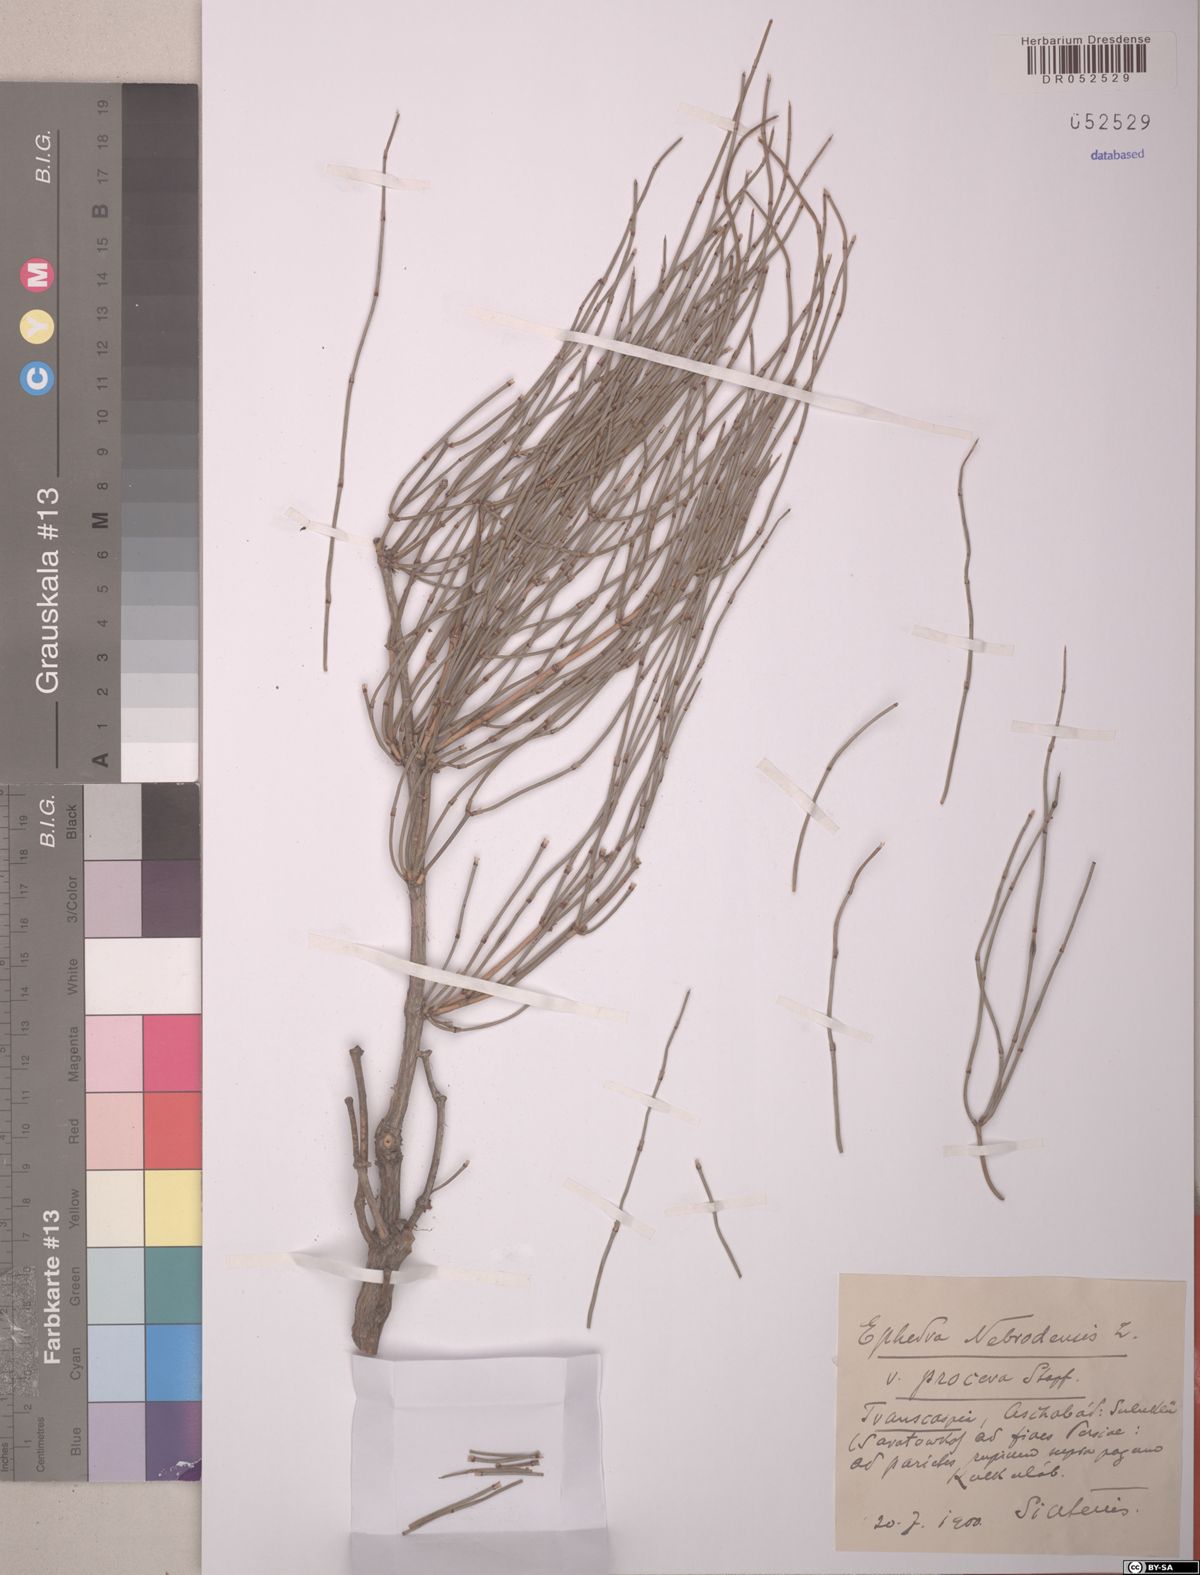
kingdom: Plantae
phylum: Tracheophyta
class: Gnetopsida
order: Ephedrales
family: Ephedraceae
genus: Ephedra
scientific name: Ephedra procera
